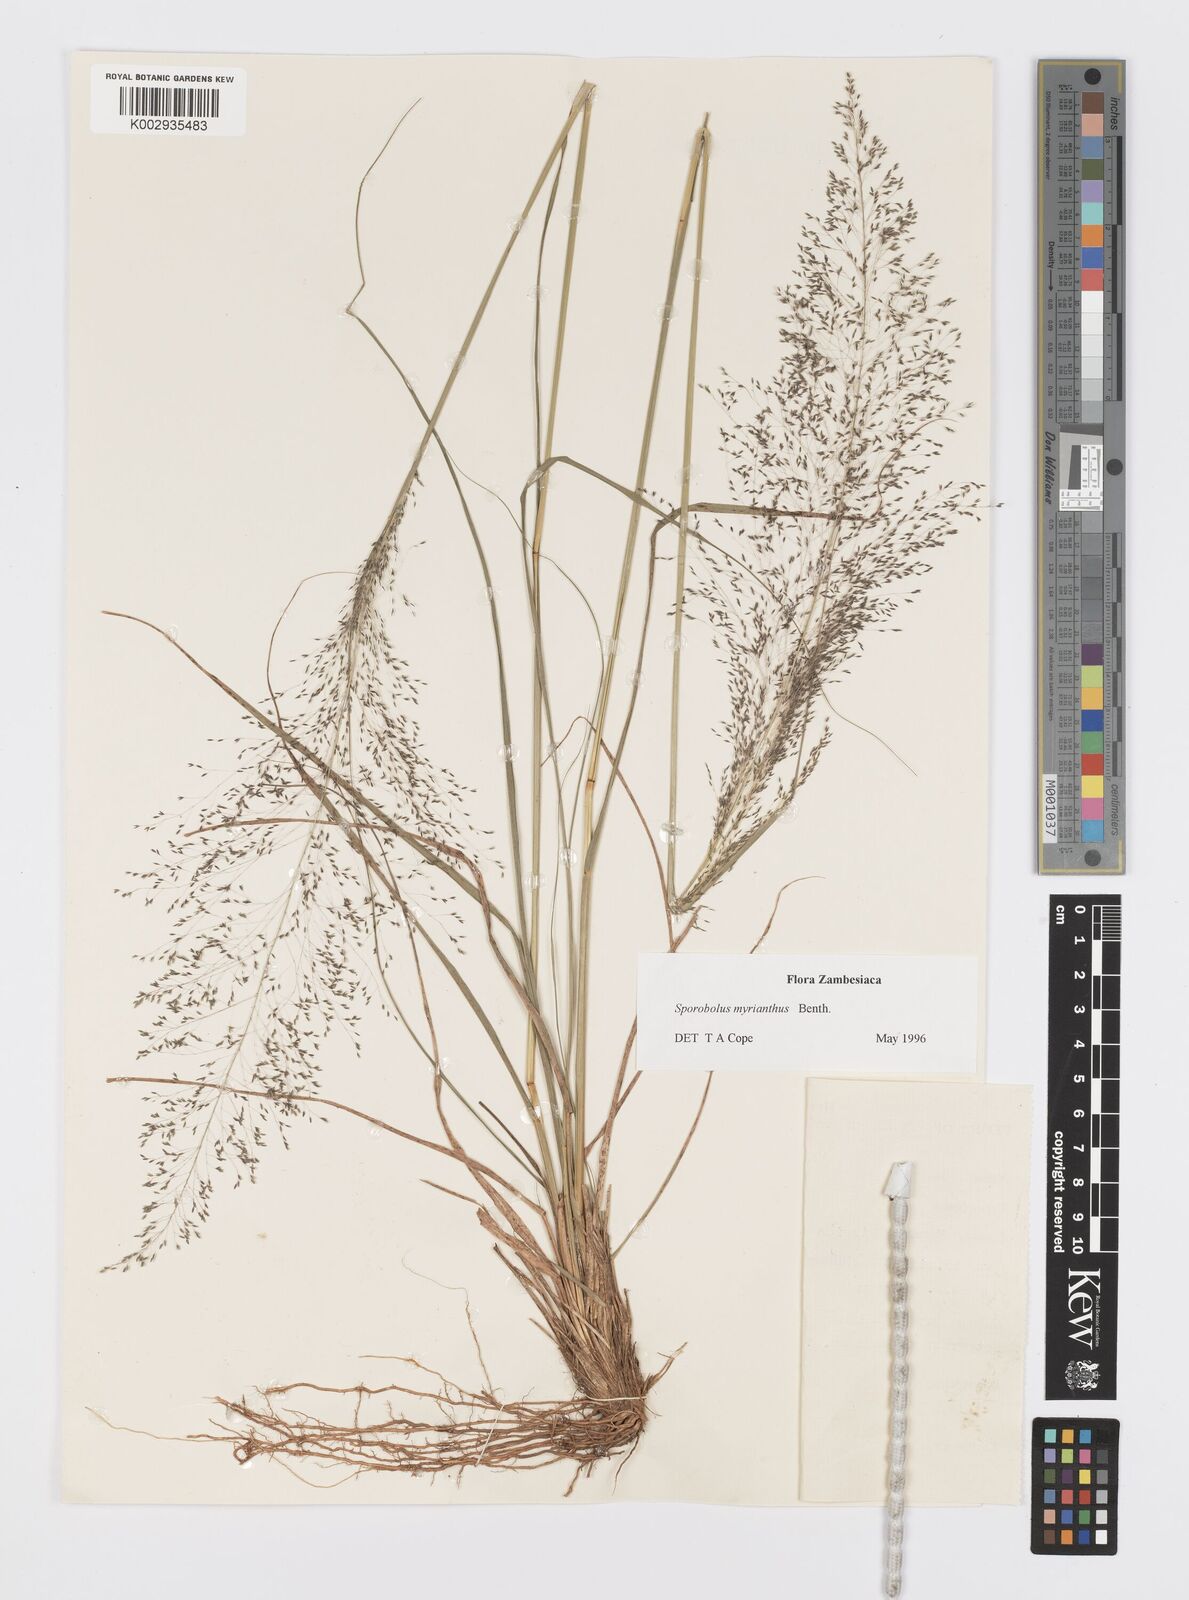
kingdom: Plantae
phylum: Tracheophyta
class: Liliopsida
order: Poales
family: Poaceae
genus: Sporobolus
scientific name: Sporobolus myrianthus
